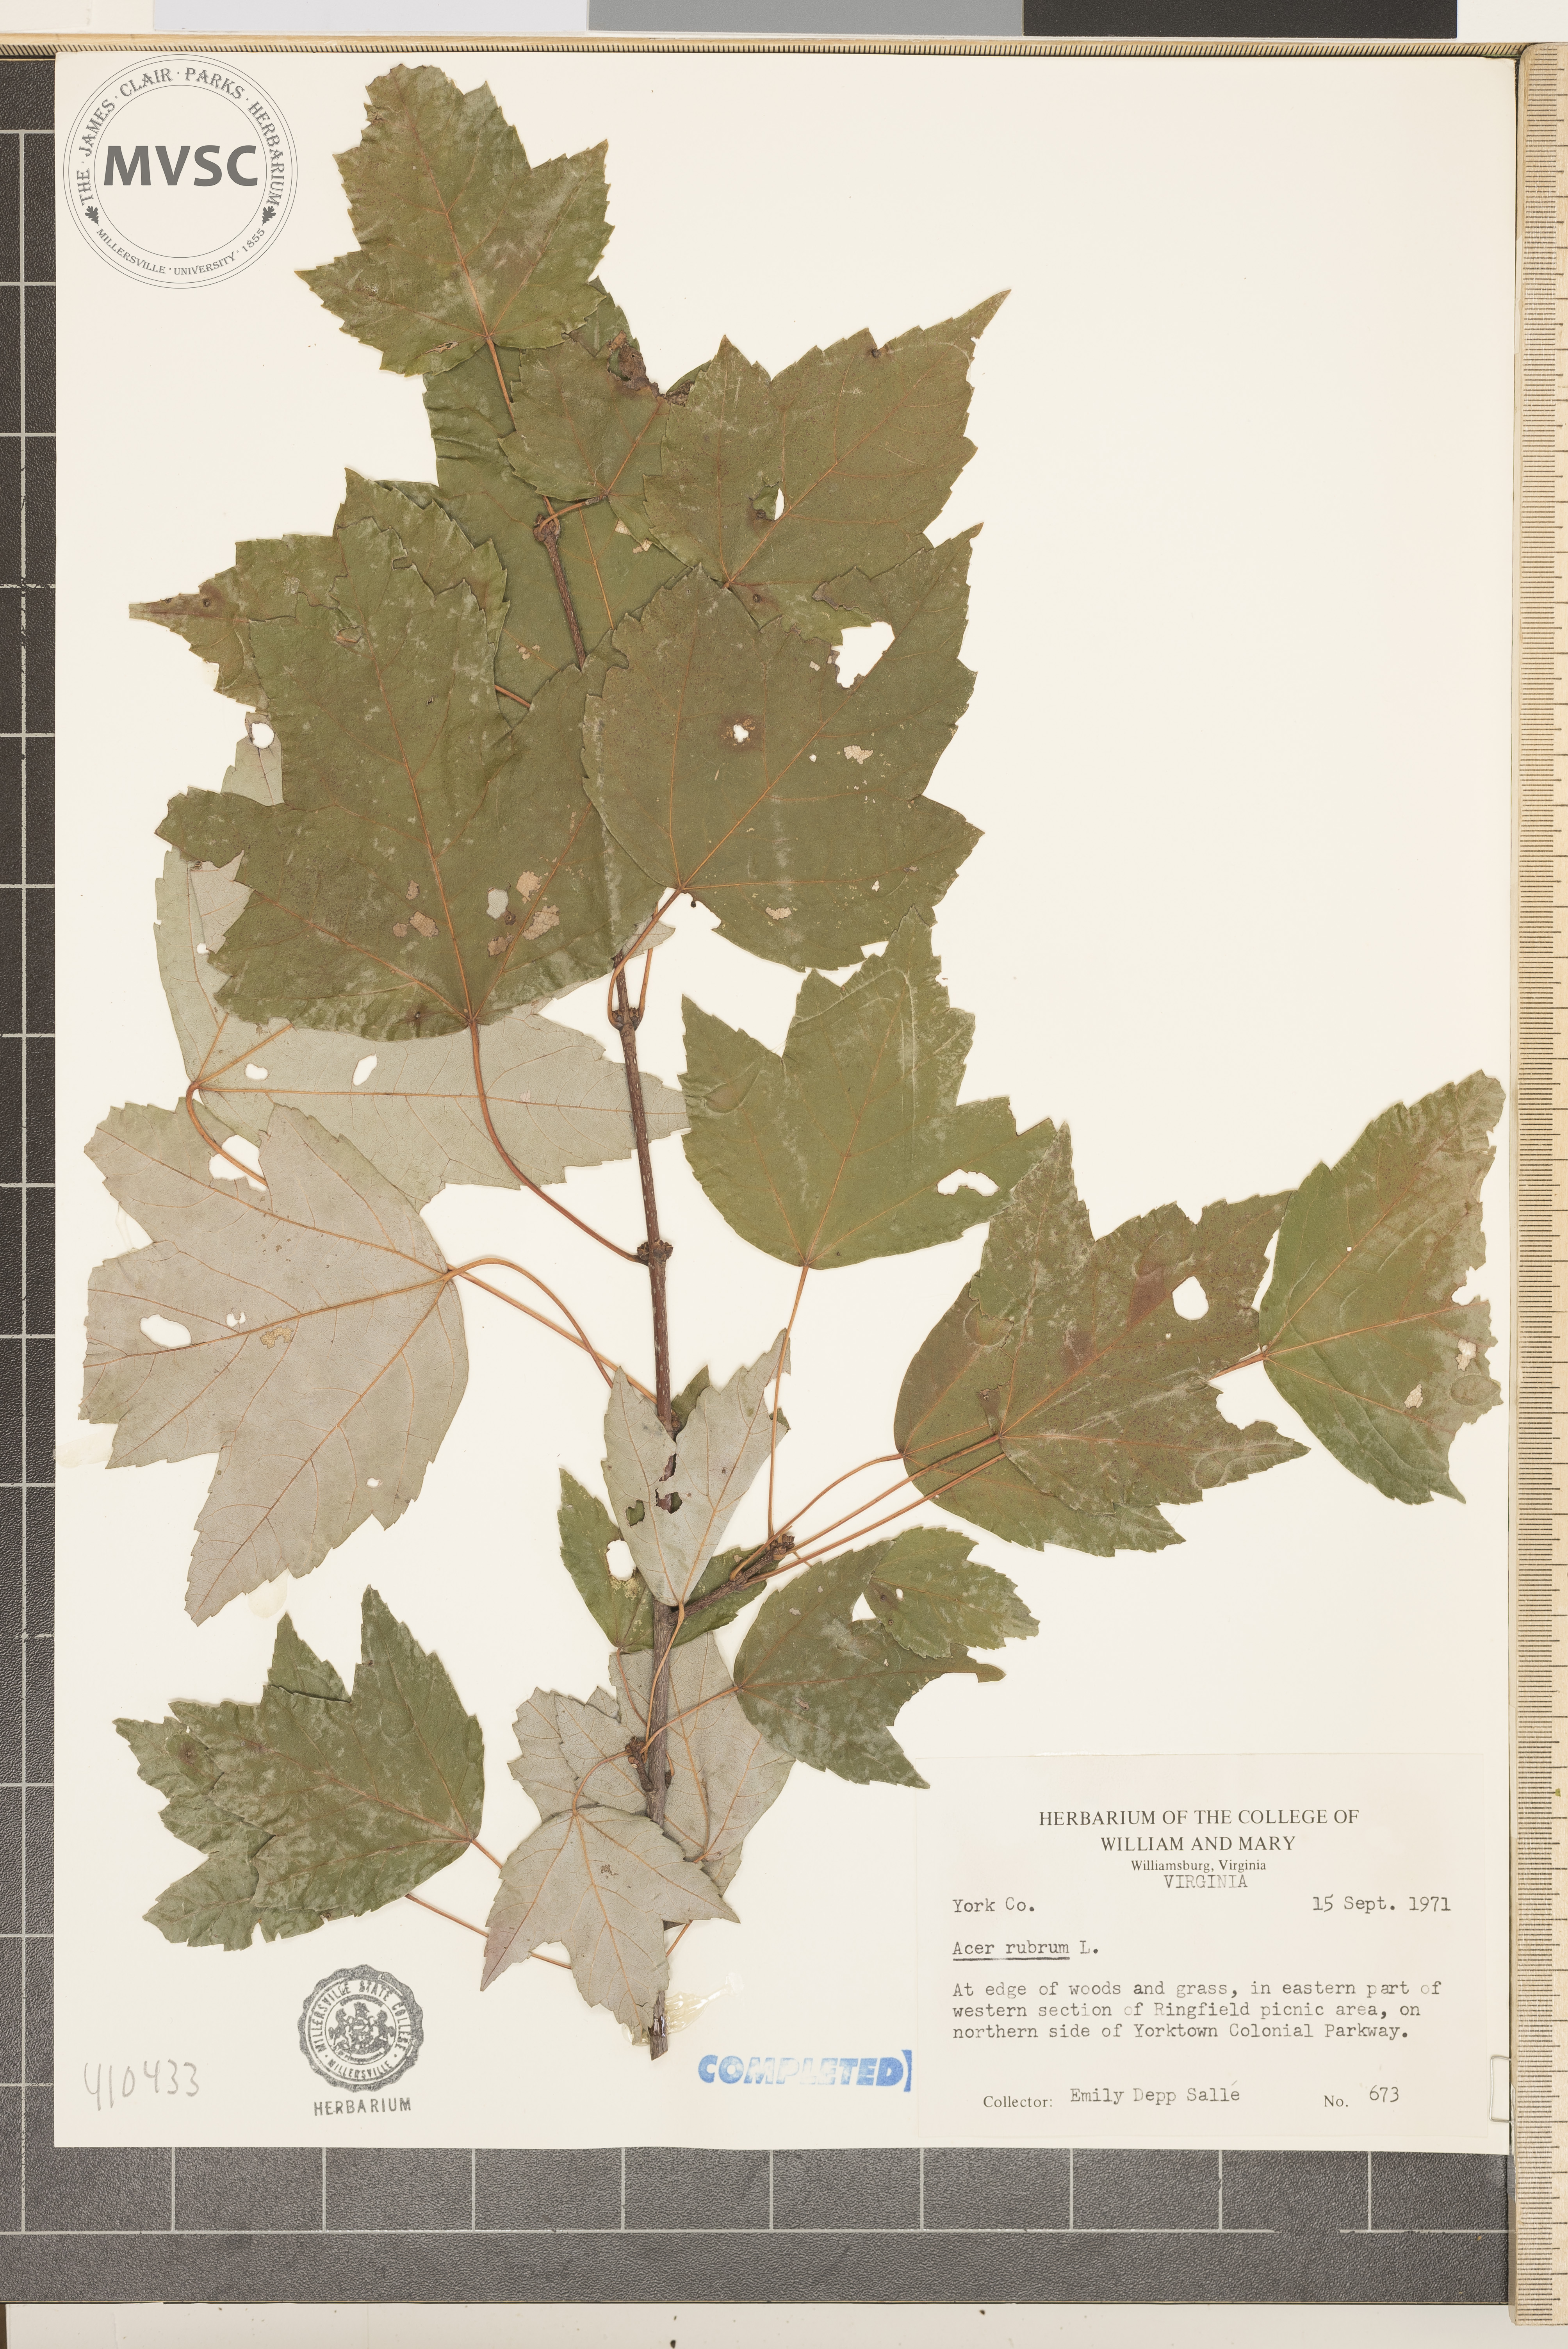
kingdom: Plantae
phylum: Tracheophyta
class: Magnoliopsida
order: Sapindales
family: Sapindaceae
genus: Acer
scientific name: Acer rubrum
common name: Red maple
